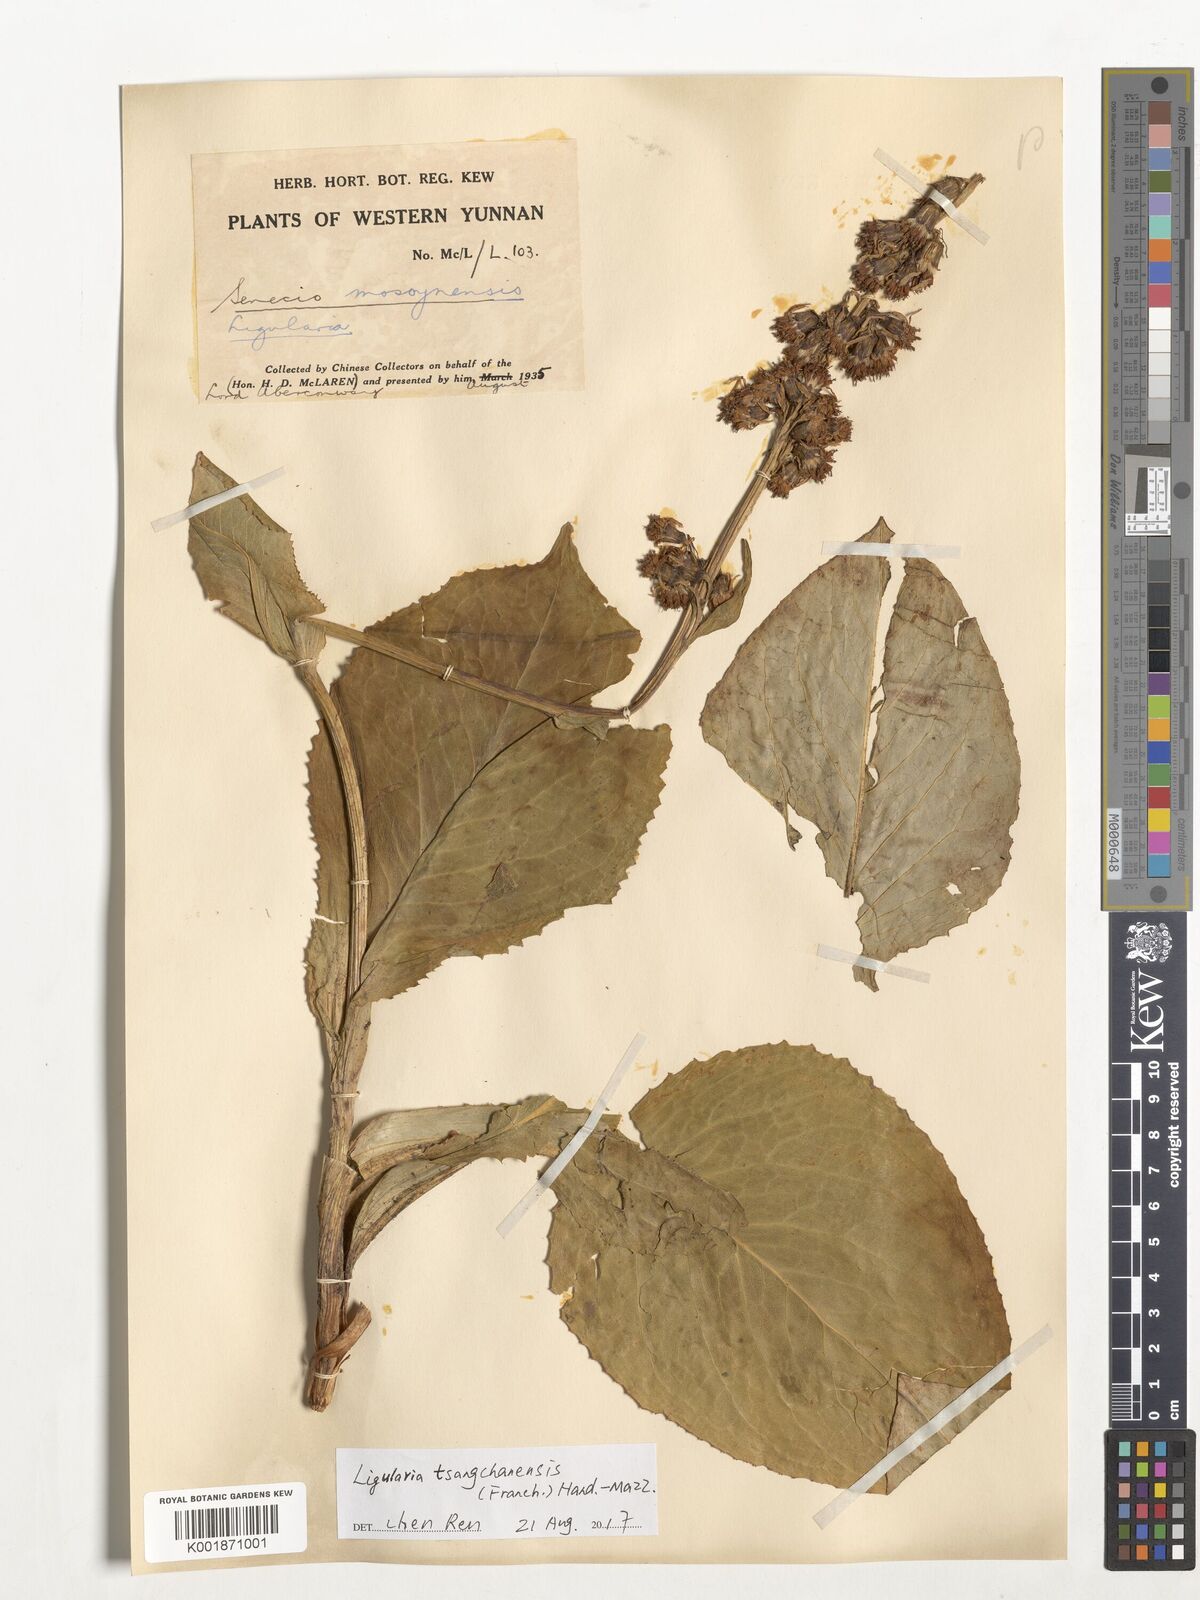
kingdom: Plantae
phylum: Tracheophyta
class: Magnoliopsida
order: Asterales
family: Asteraceae
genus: Ligularia
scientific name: Ligularia tsangchanensis
